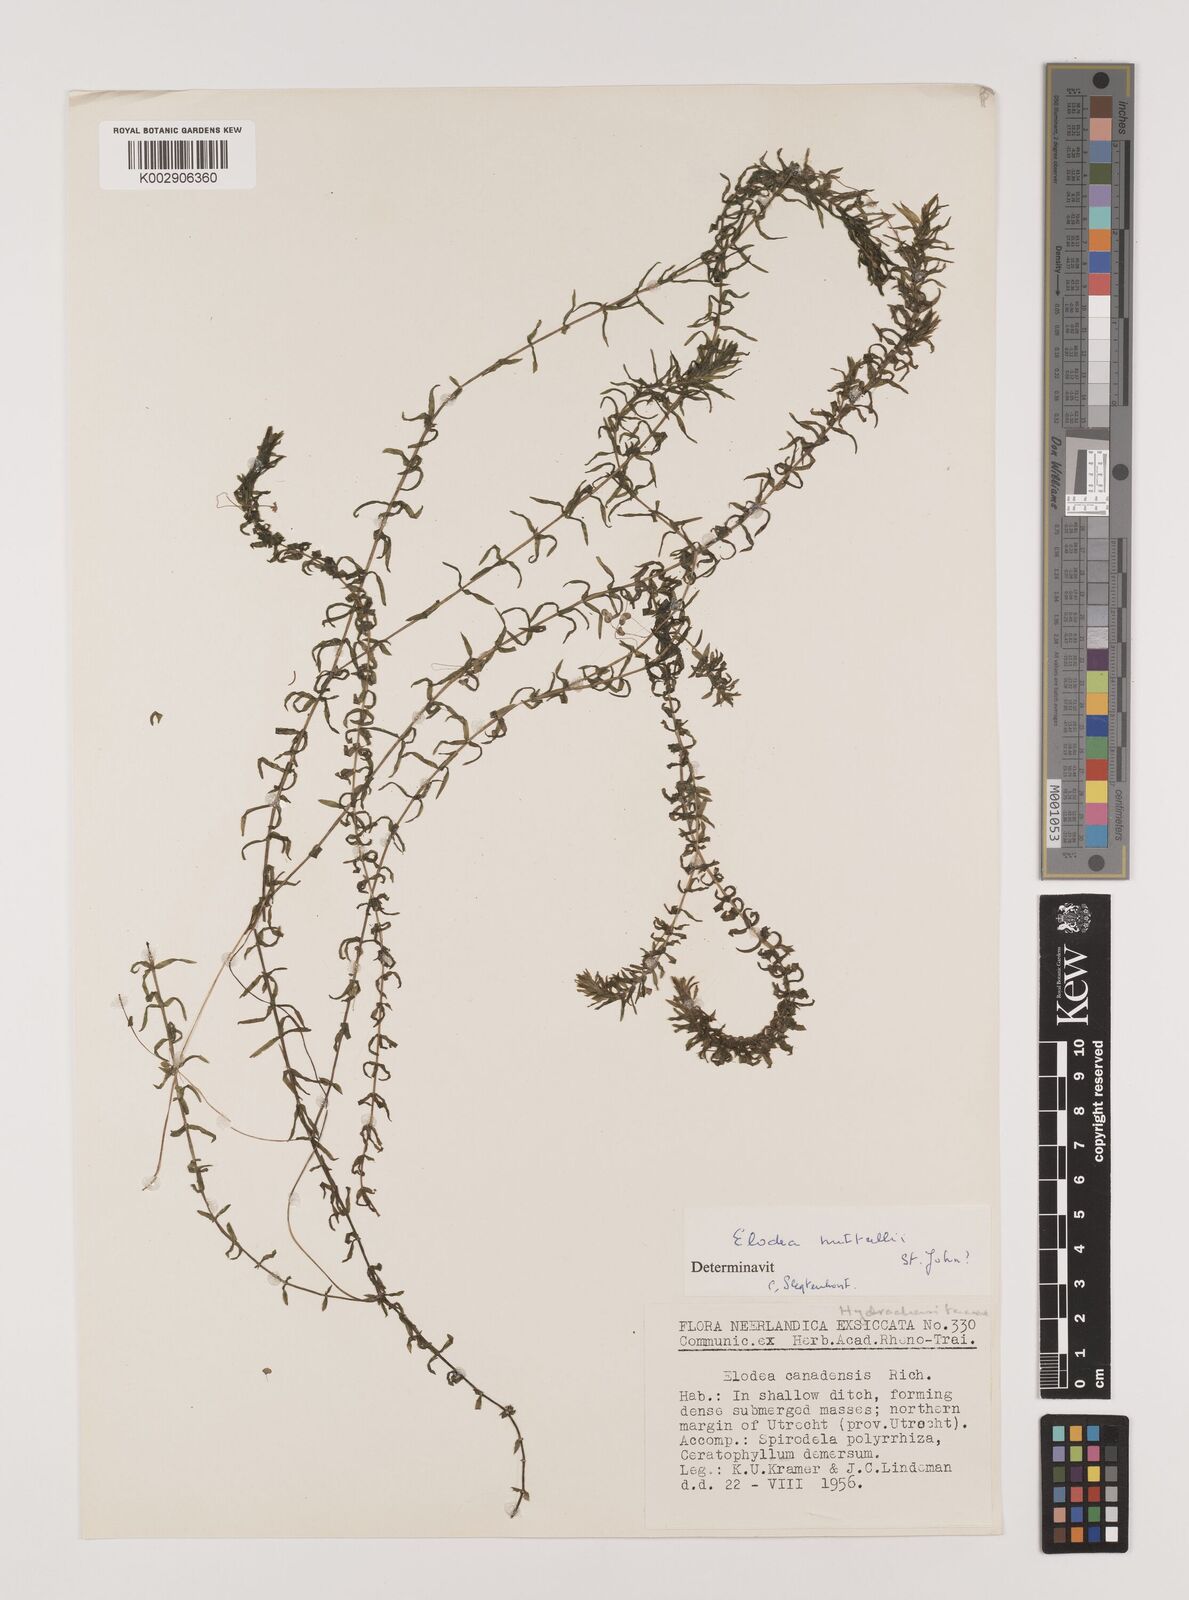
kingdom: Plantae
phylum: Tracheophyta
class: Liliopsida
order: Alismatales
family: Hydrocharitaceae
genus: Elodea
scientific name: Elodea canadensis
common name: Canadian waterweed
